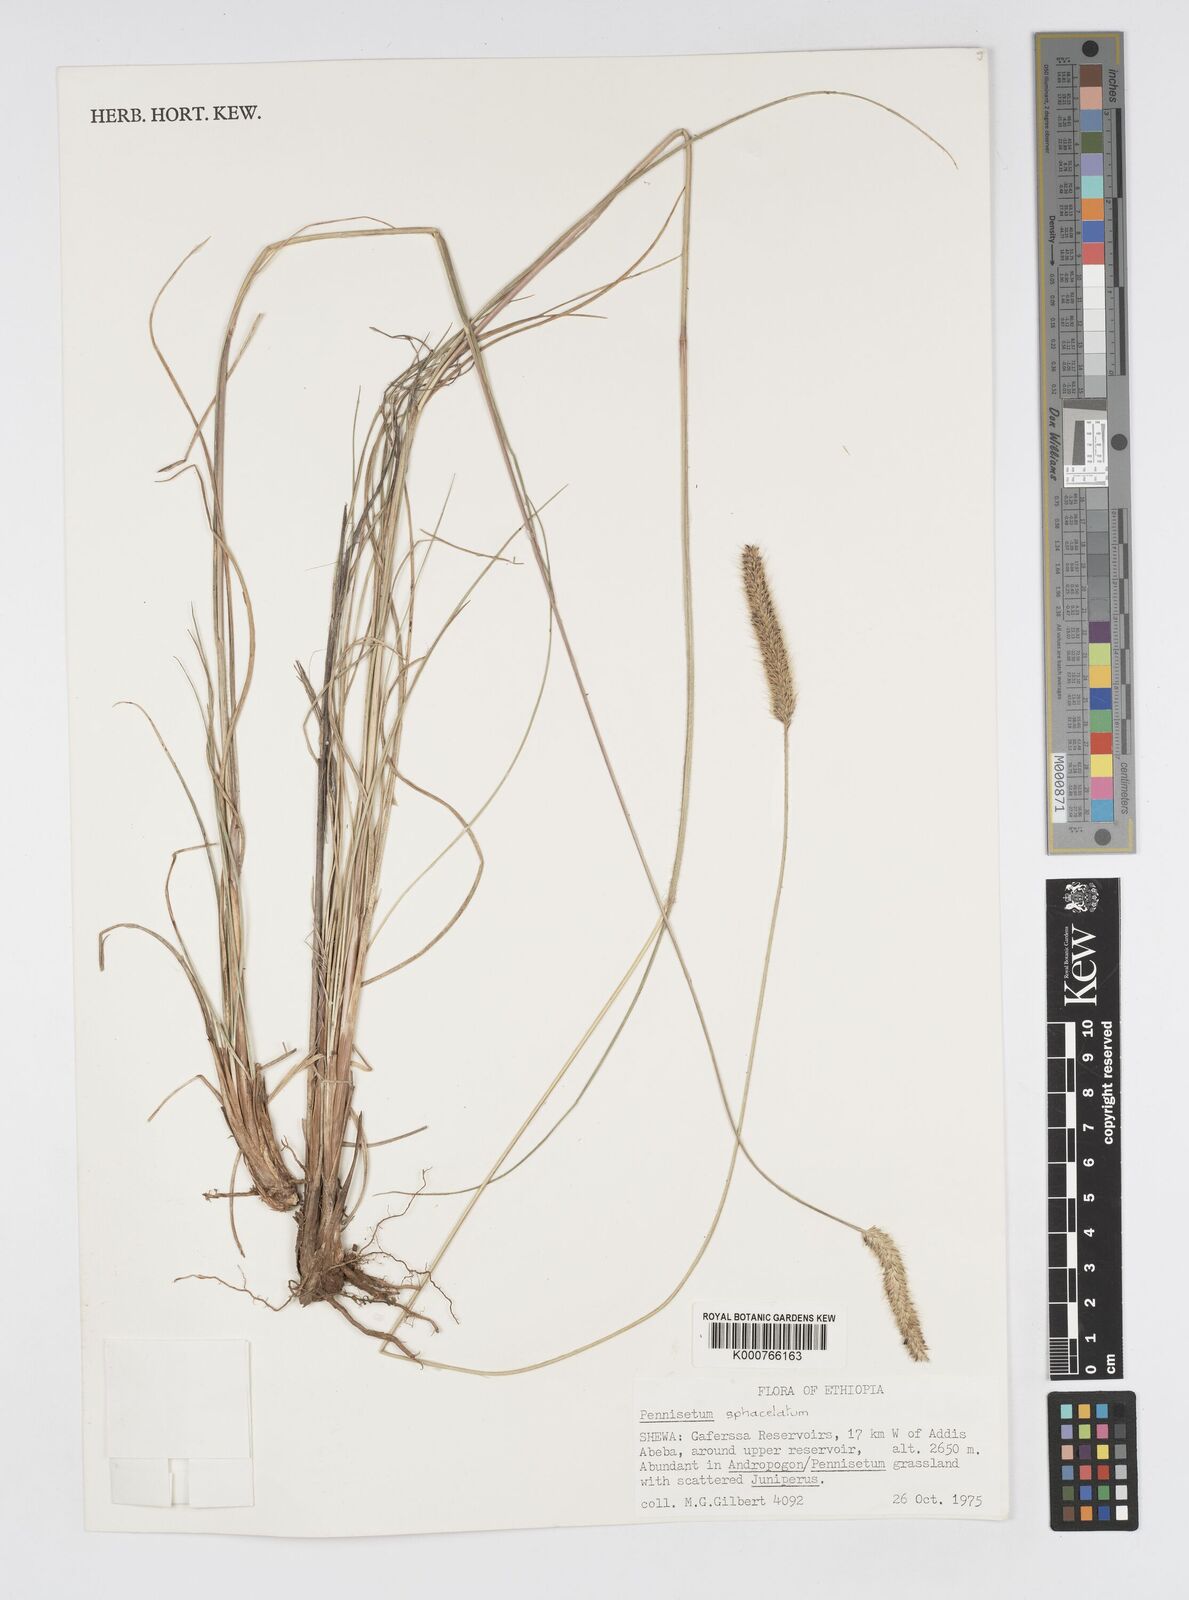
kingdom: Plantae
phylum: Tracheophyta
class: Liliopsida
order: Poales
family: Poaceae
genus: Cenchrus
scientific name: Cenchrus sphacelatus
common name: Bulgras
